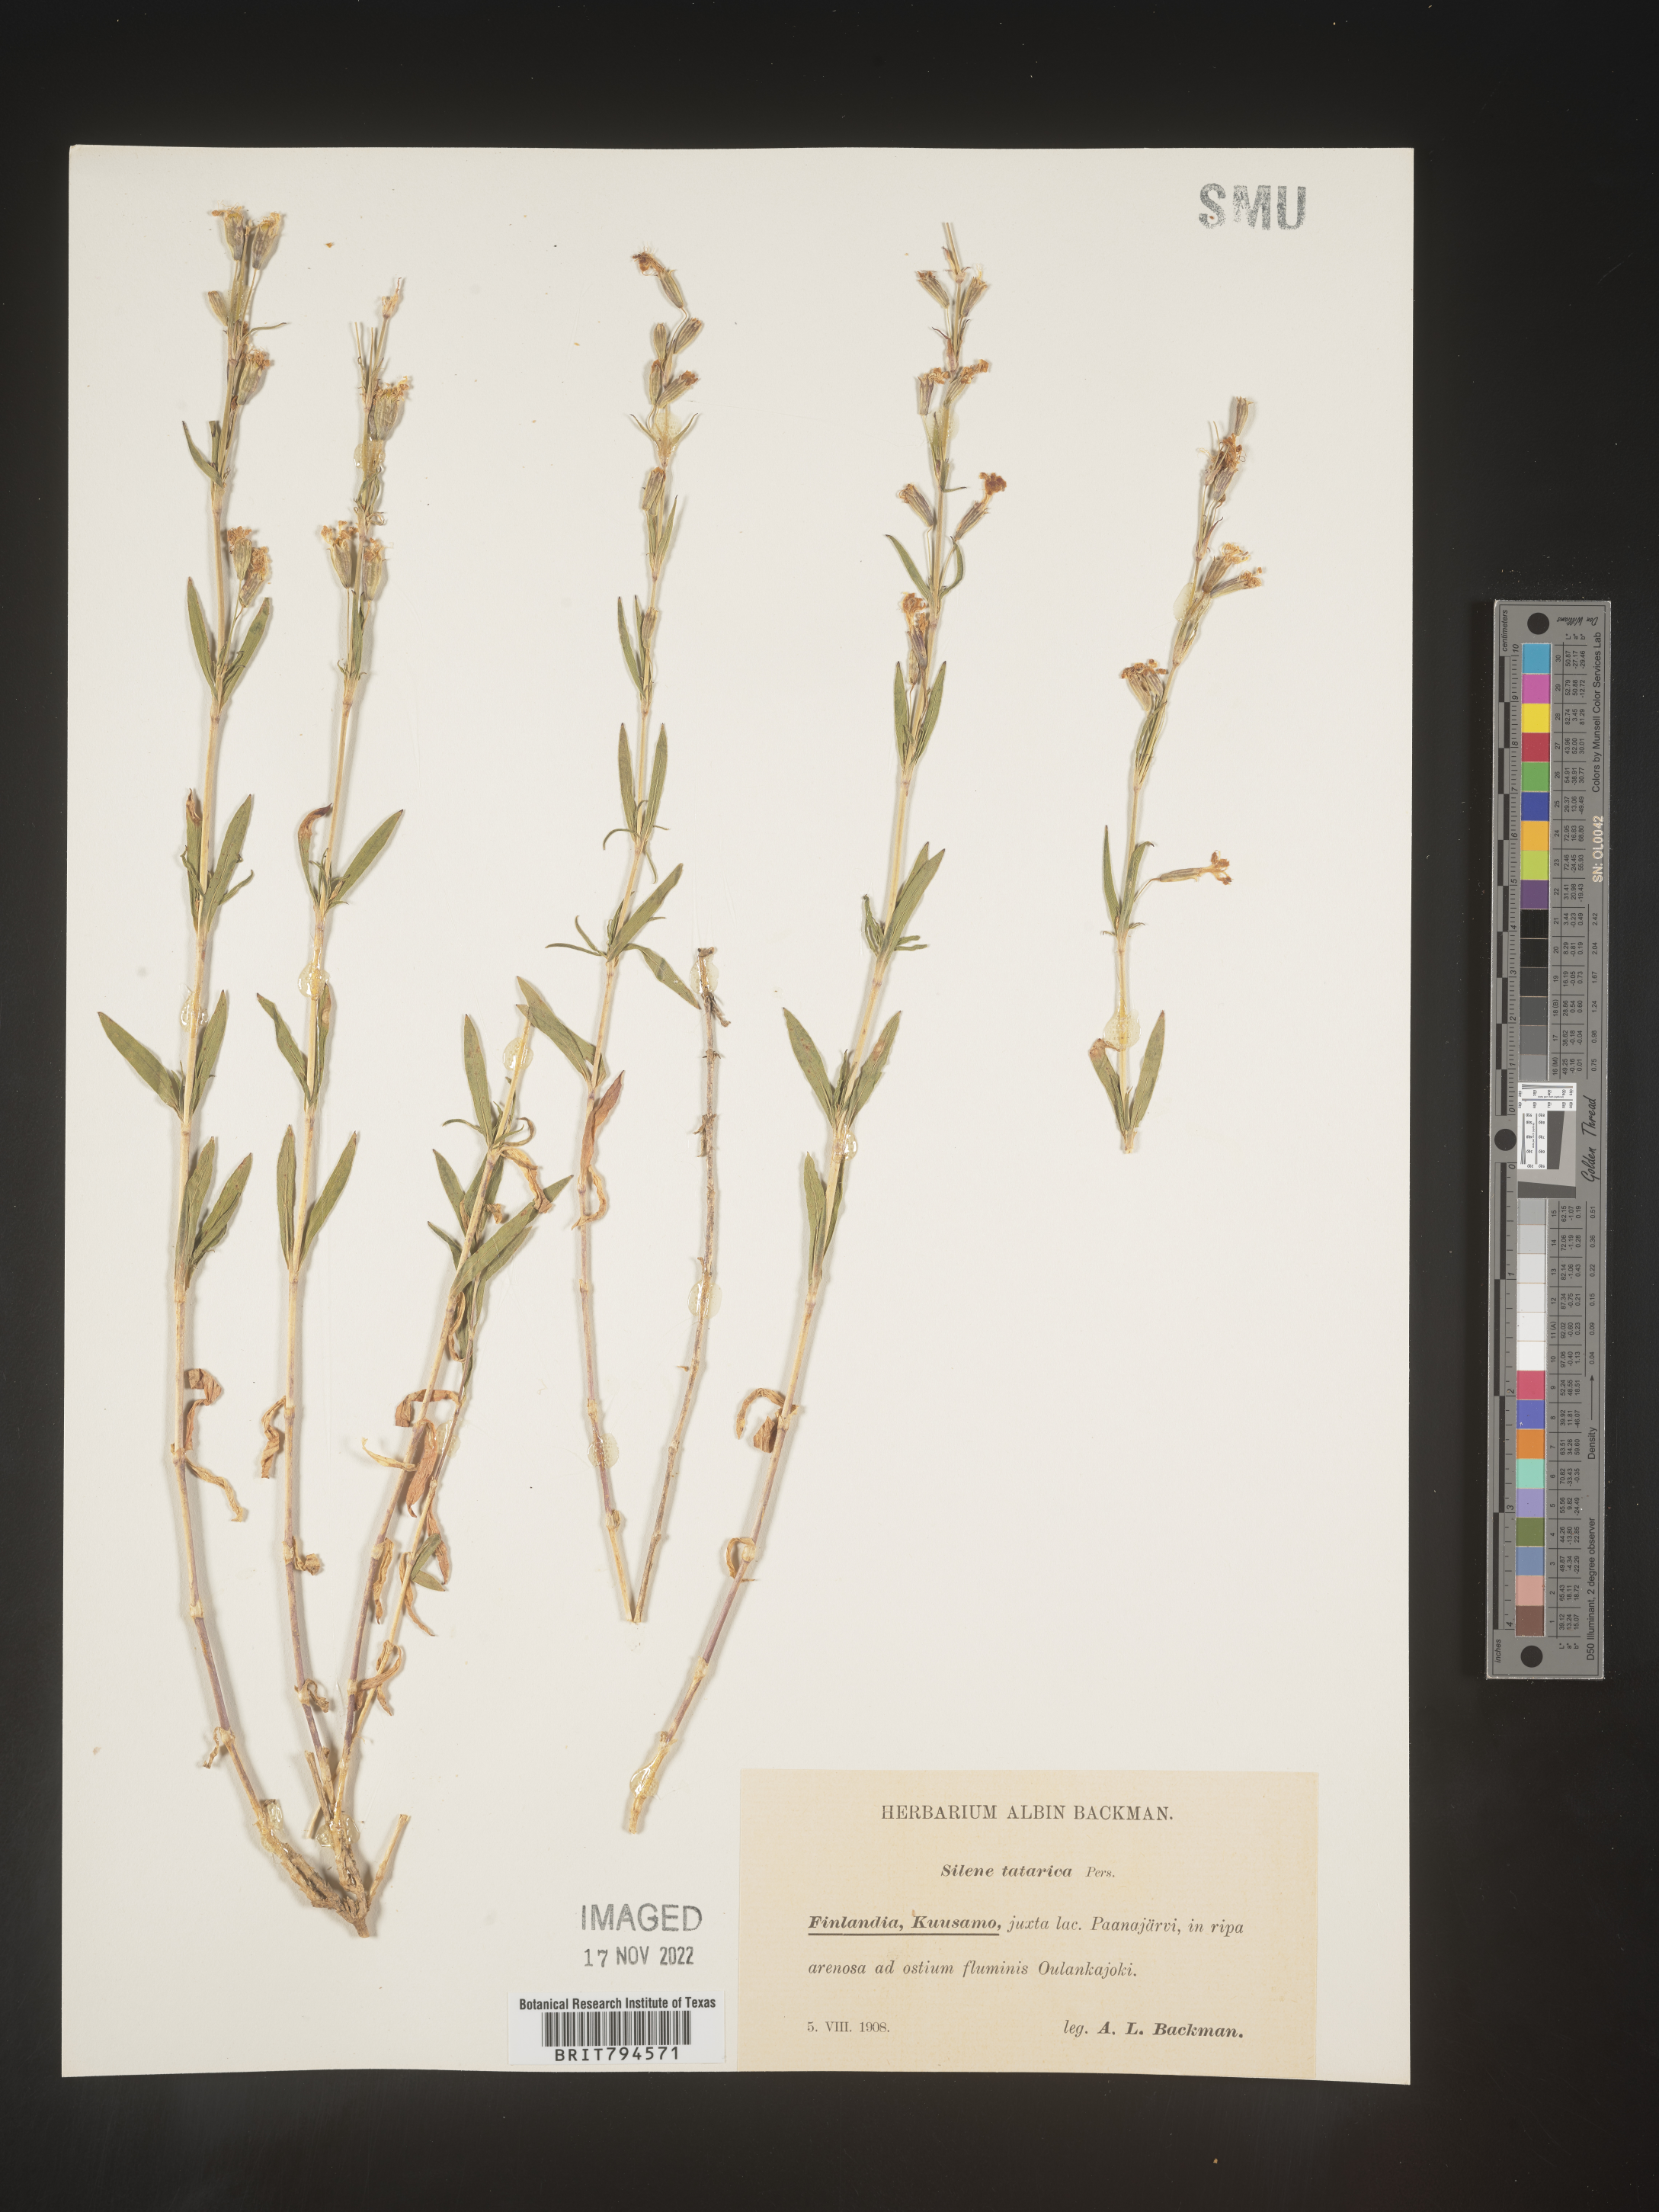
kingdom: Plantae
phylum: Tracheophyta
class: Magnoliopsida
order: Caryophyllales
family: Caryophyllaceae
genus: Silene
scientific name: Silene tatarica
